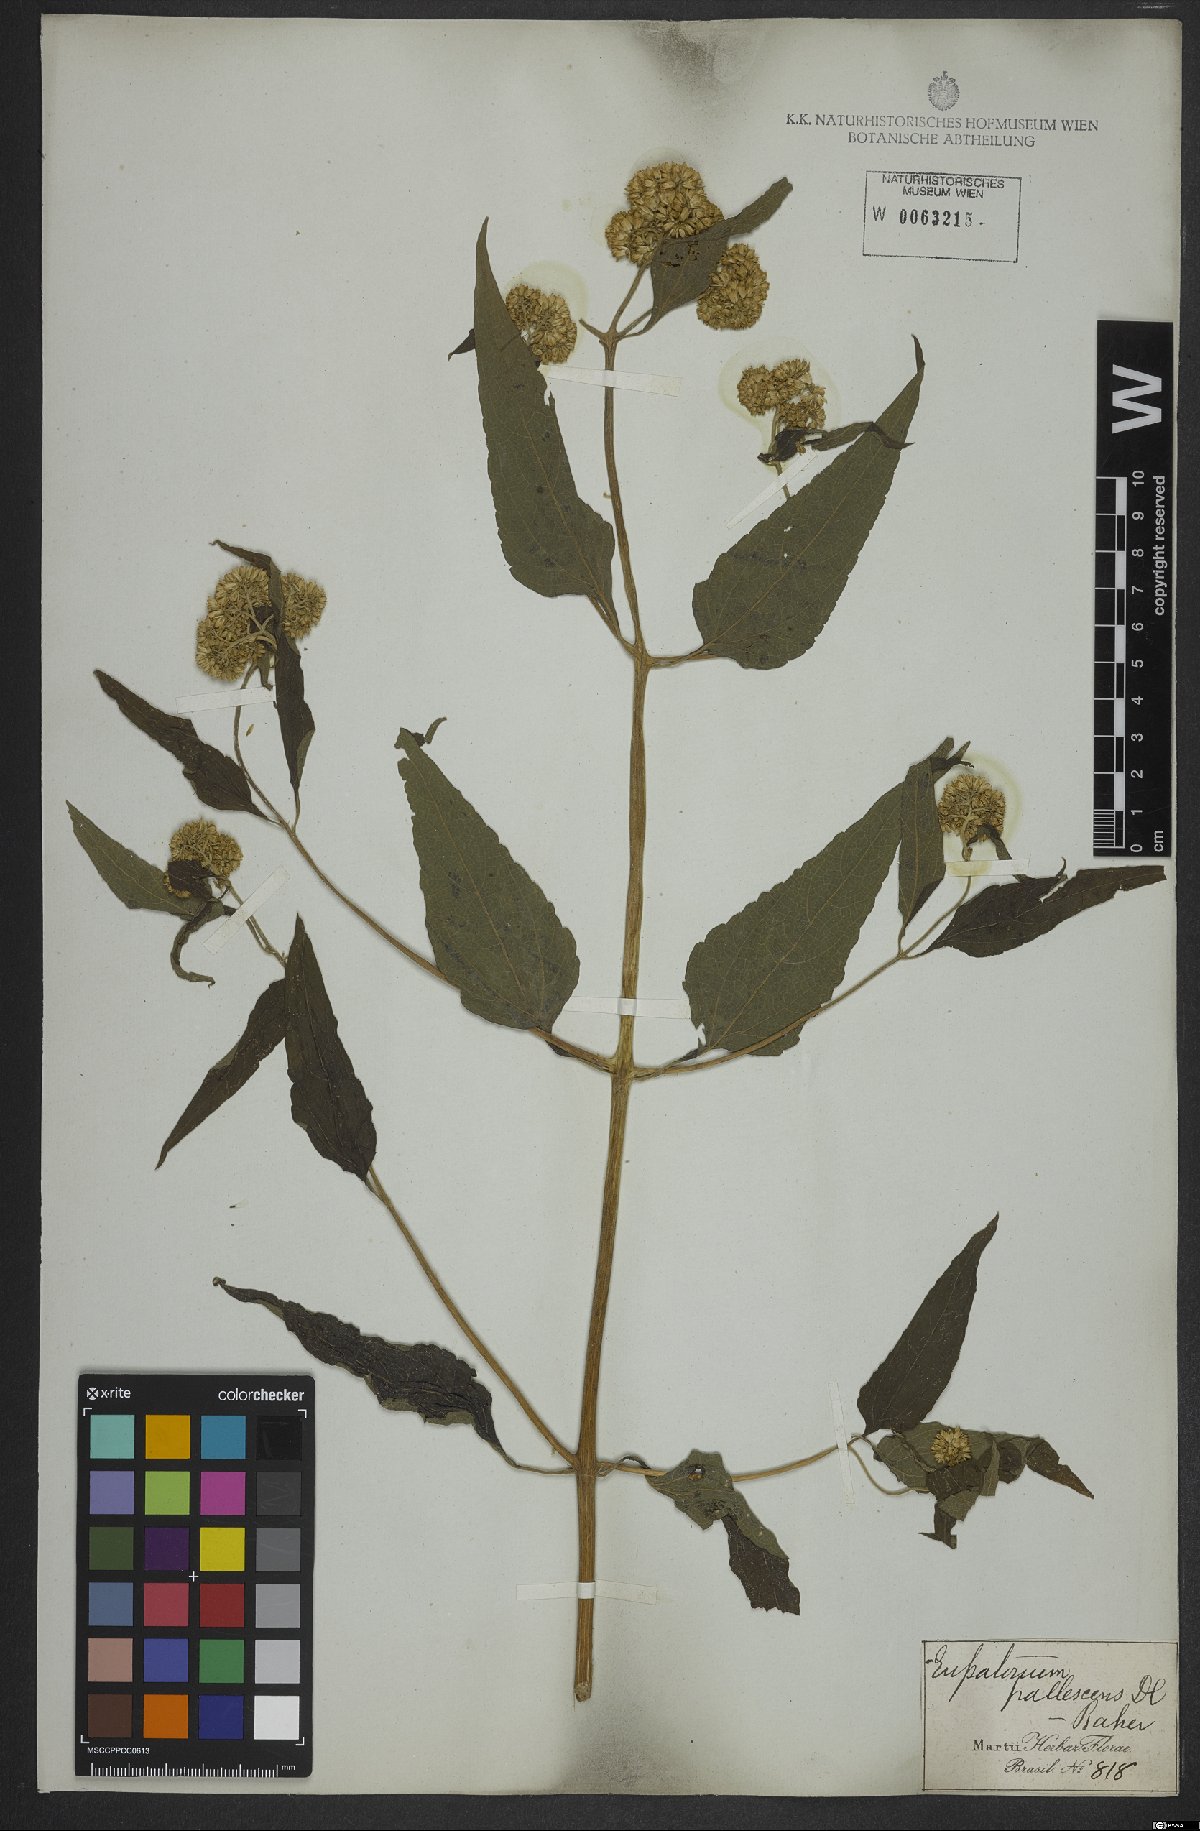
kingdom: Plantae
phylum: Tracheophyta
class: Magnoliopsida
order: Asterales
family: Asteraceae
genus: Austroeupatorium
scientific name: Austroeupatorium inulifolium
